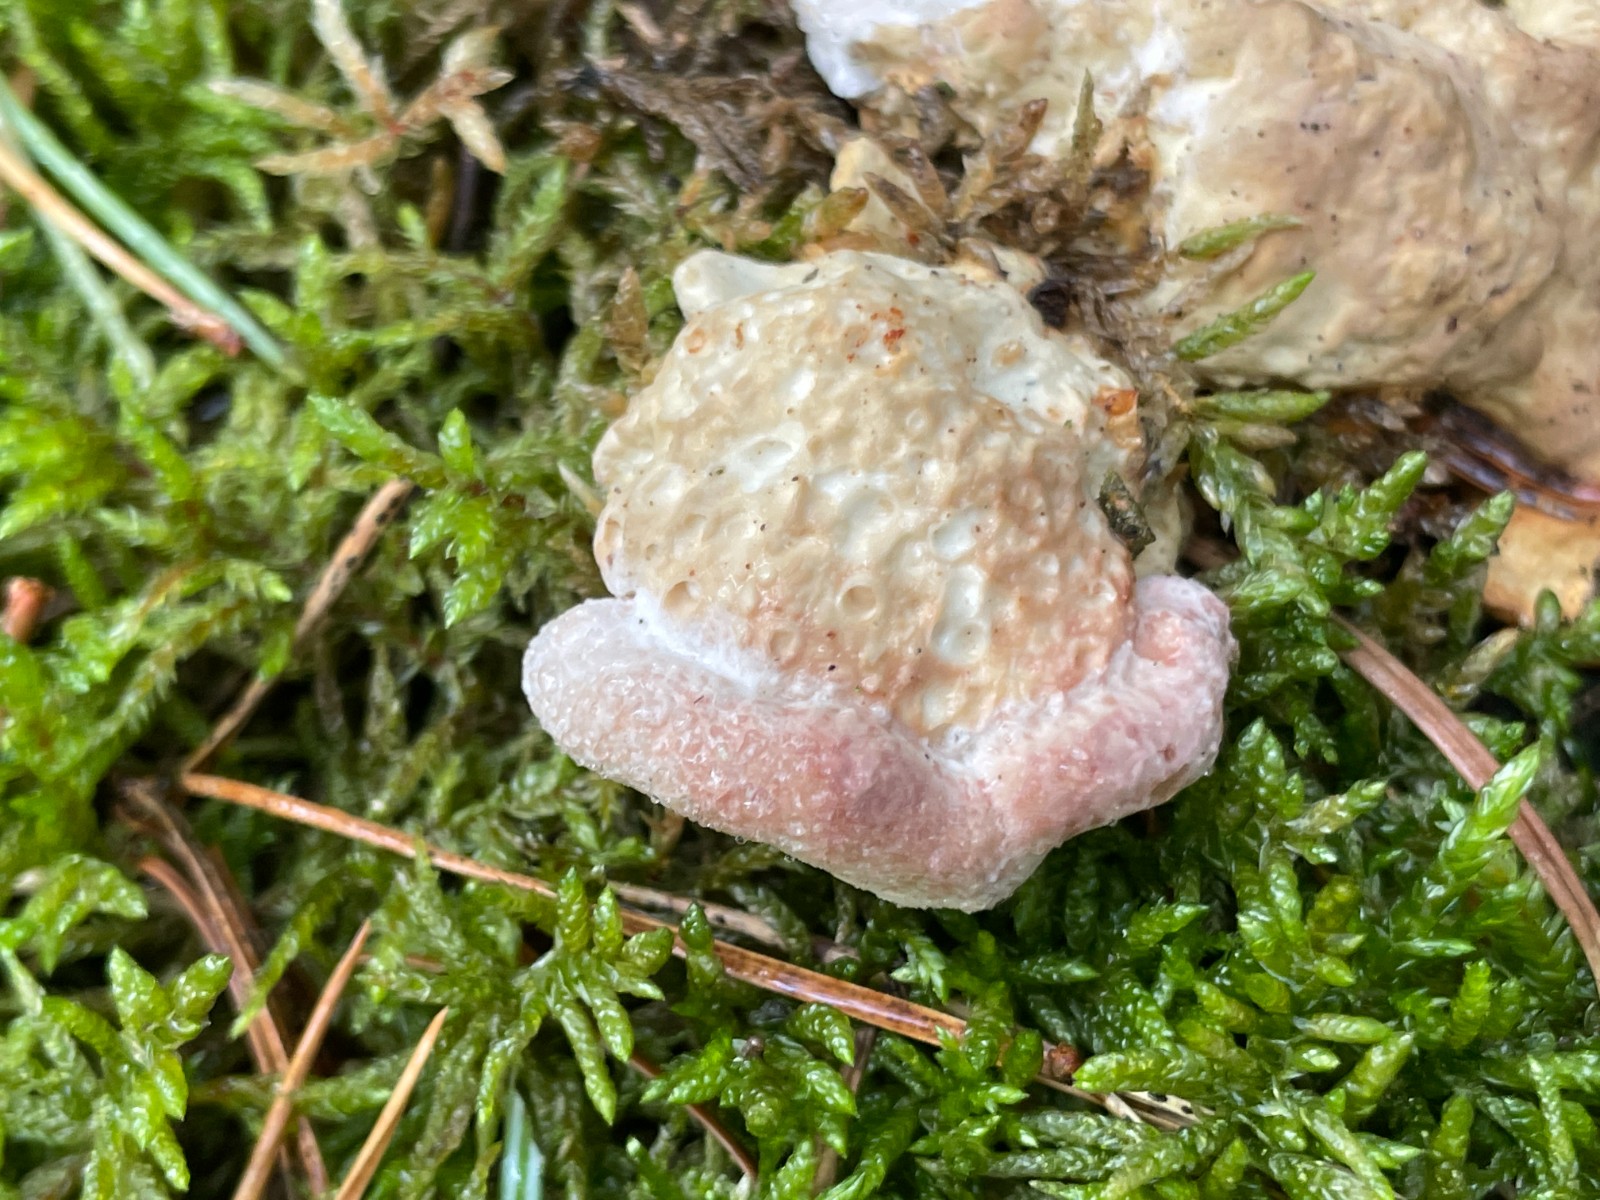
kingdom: Fungi
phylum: Basidiomycota
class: Agaricomycetes
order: Polyporales
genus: Calcipostia
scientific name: Calcipostia guttulata
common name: dråbe-kødporesvamp
